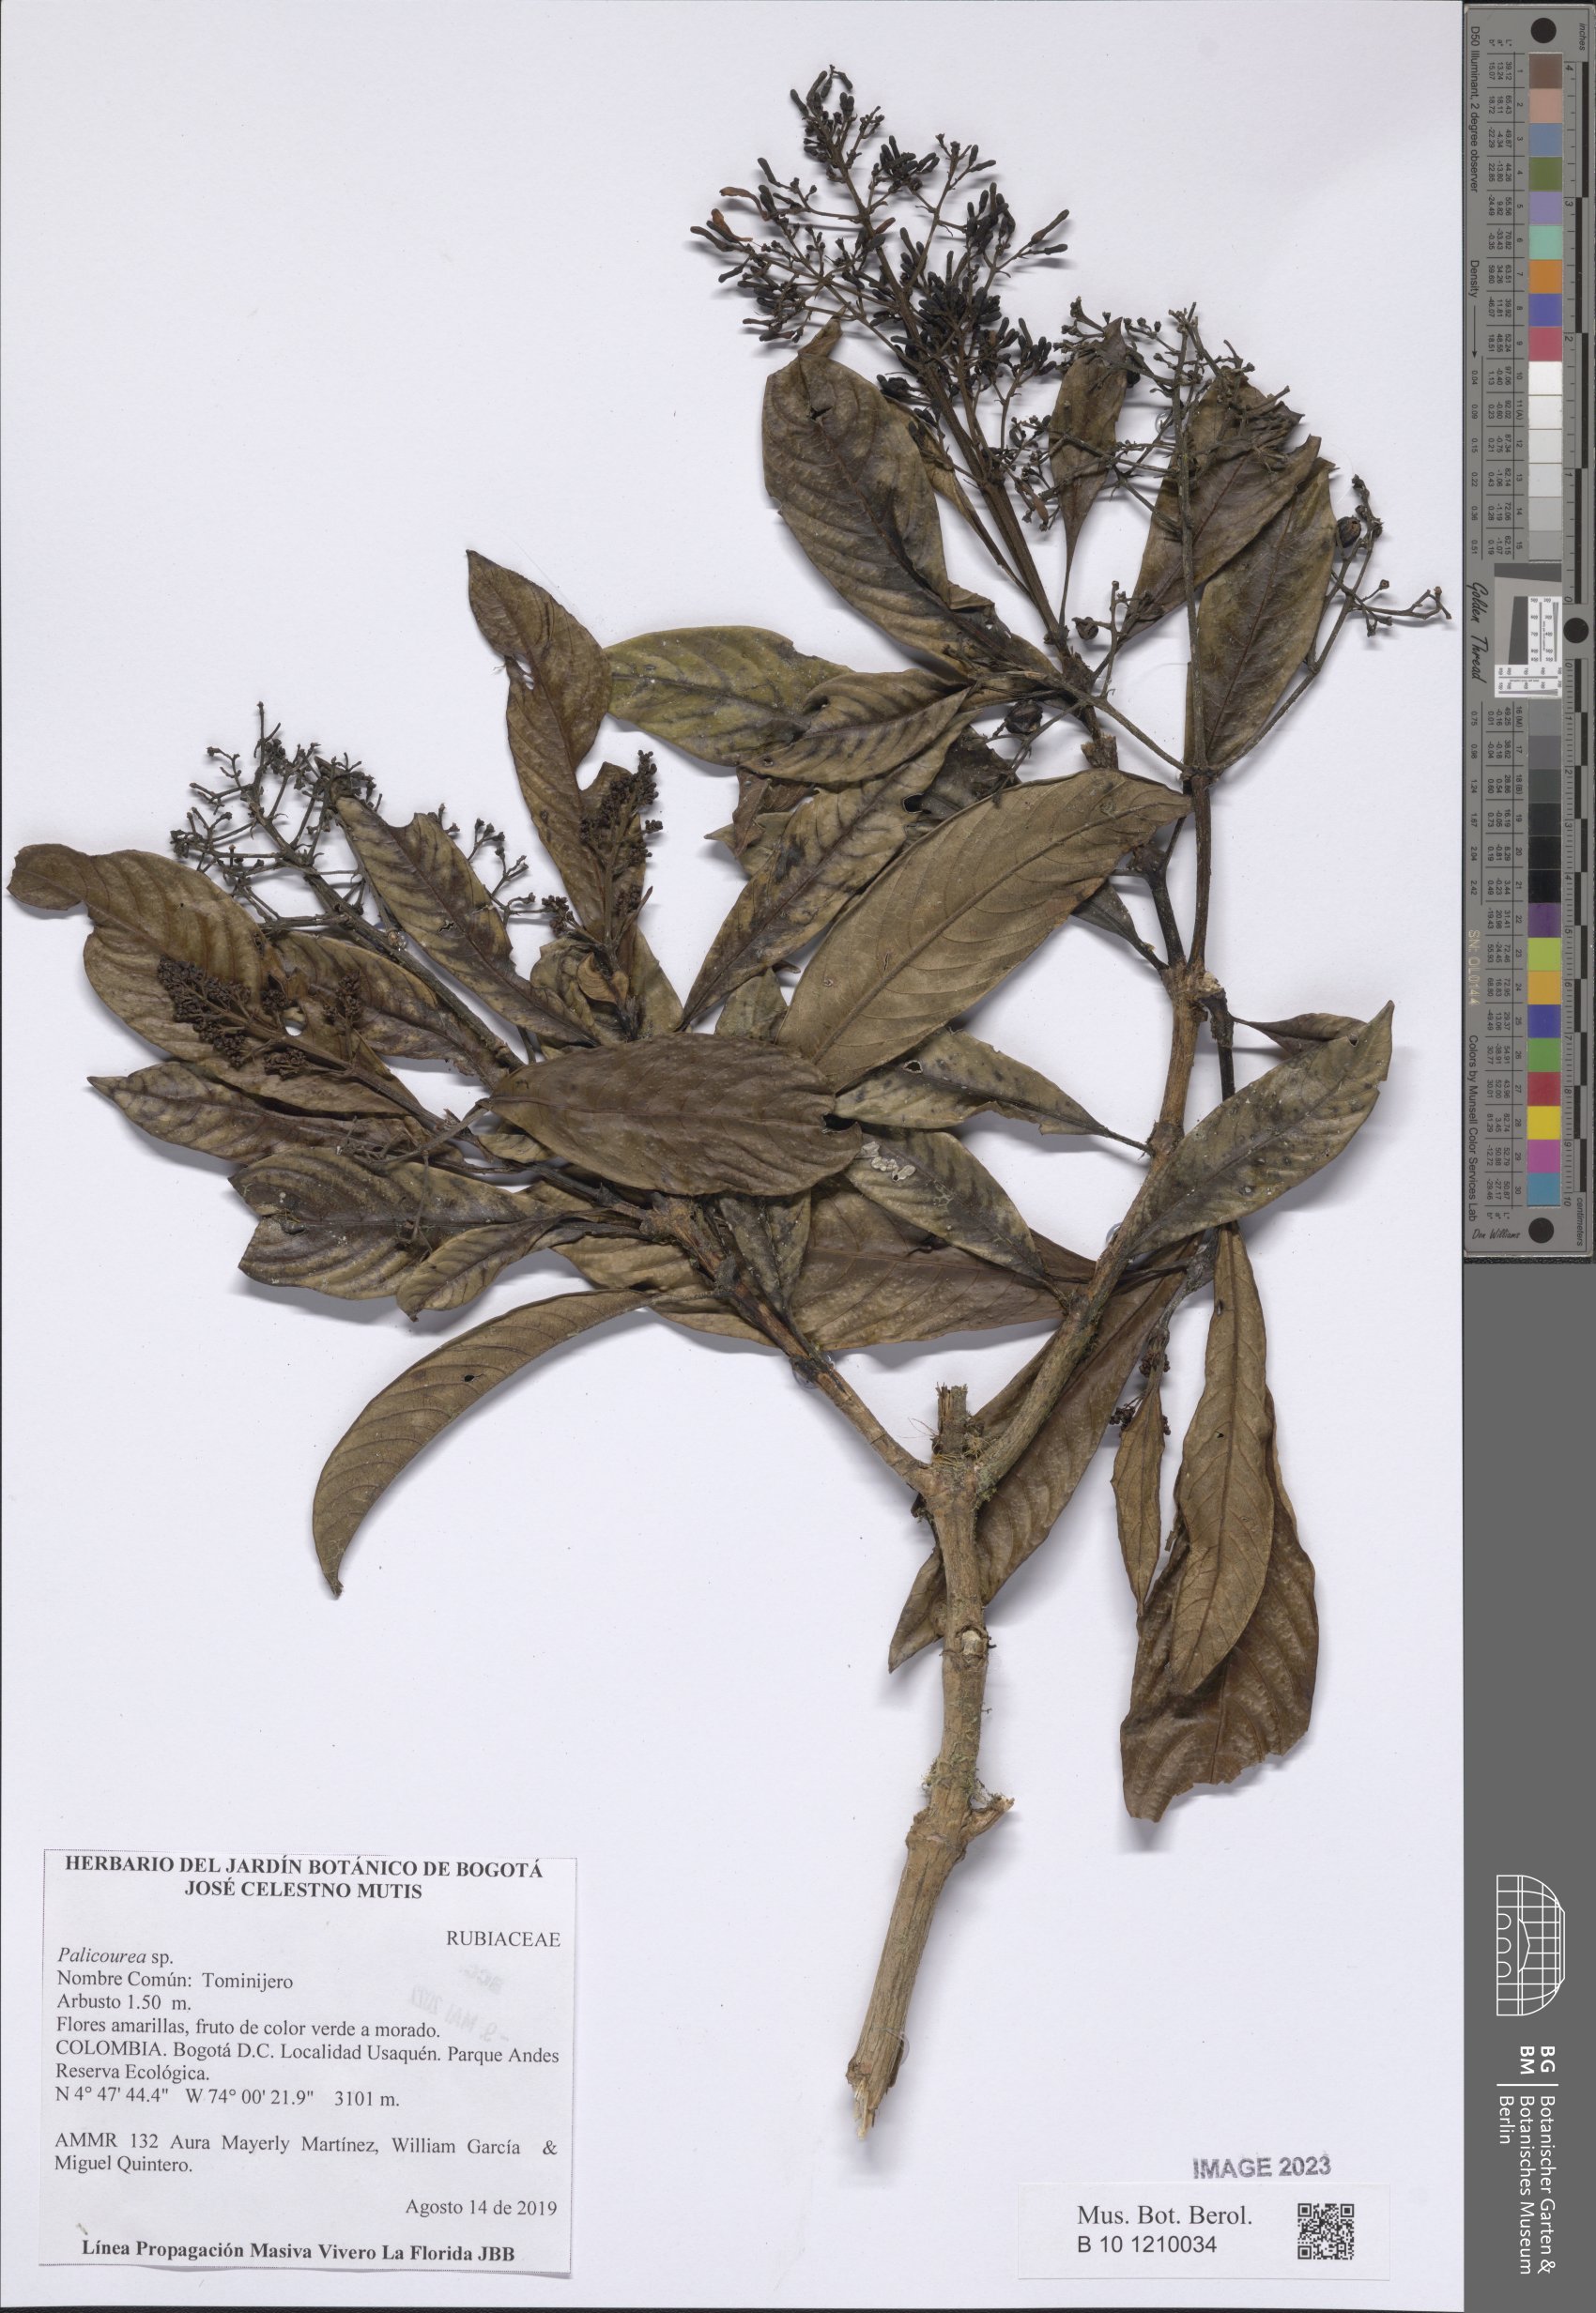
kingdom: Plantae
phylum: Tracheophyta
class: Magnoliopsida
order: Gentianales
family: Rubiaceae
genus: Palicourea
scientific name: Palicourea
